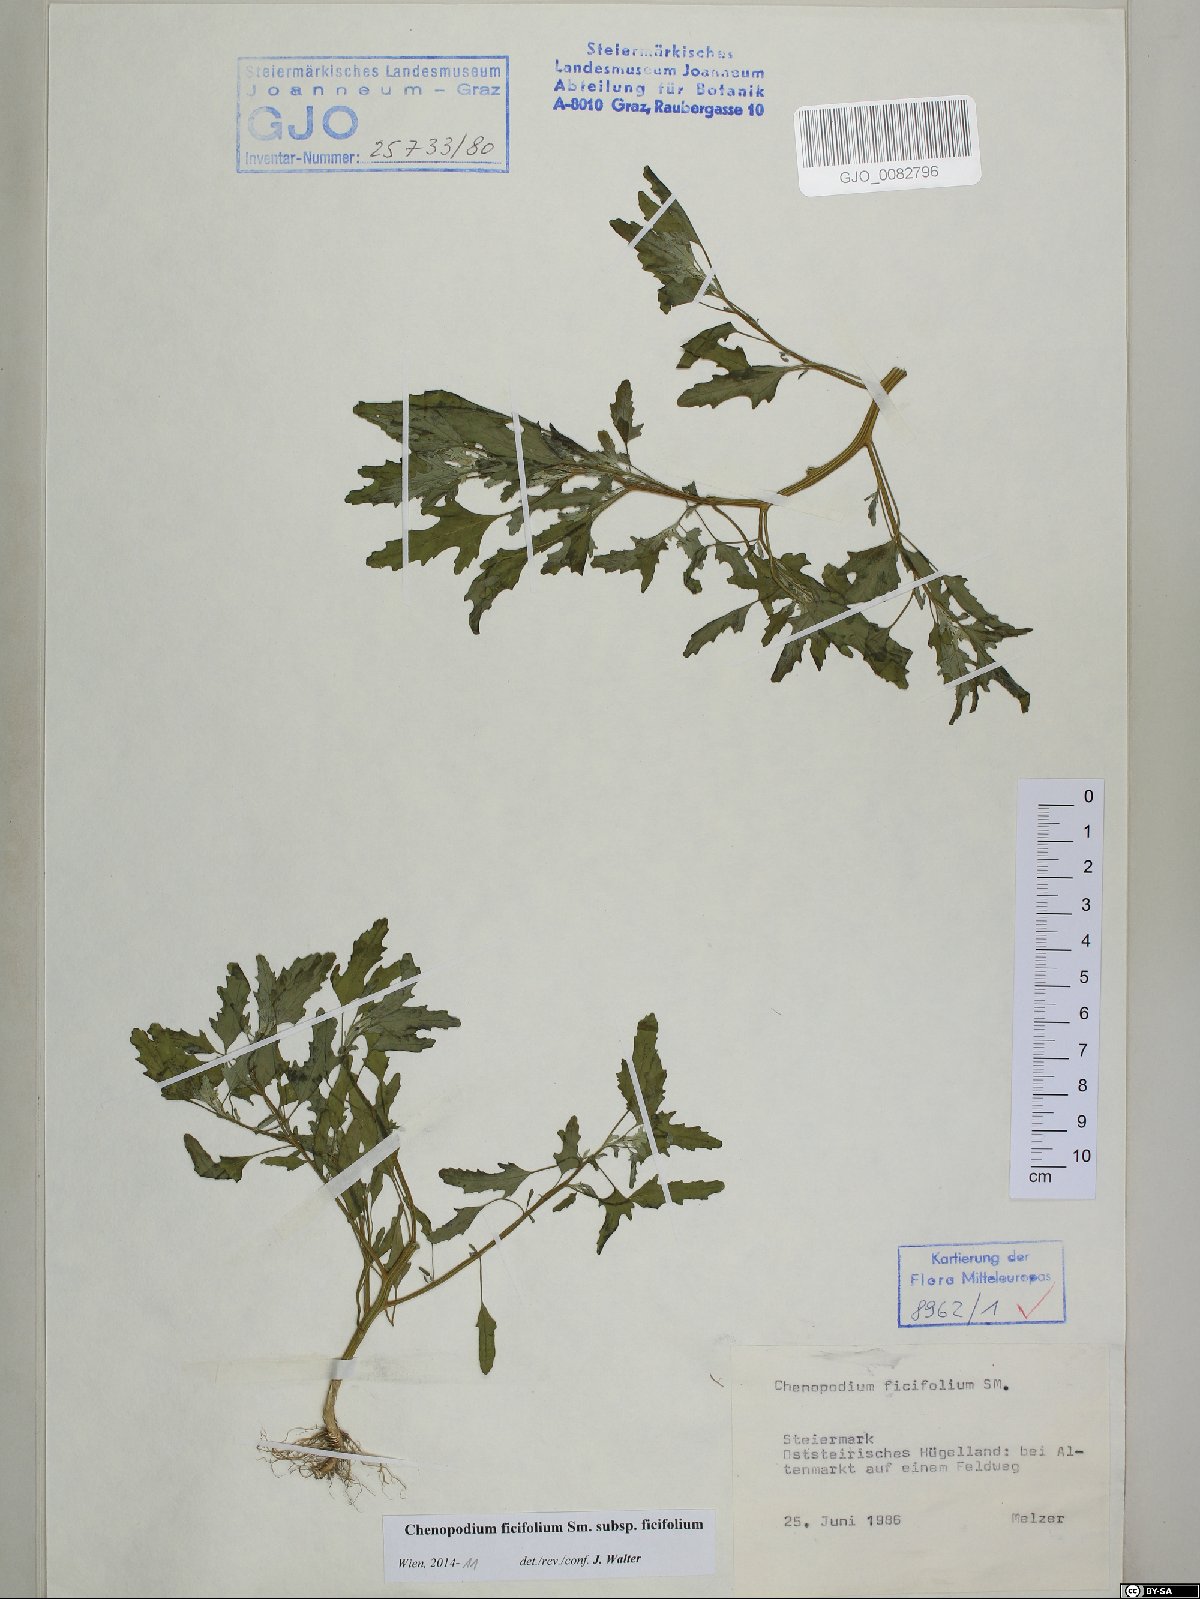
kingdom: Plantae
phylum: Tracheophyta
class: Magnoliopsida
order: Caryophyllales
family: Amaranthaceae
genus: Chenopodium
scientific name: Chenopodium ficifolium
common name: Fig-leaved goosefoot
